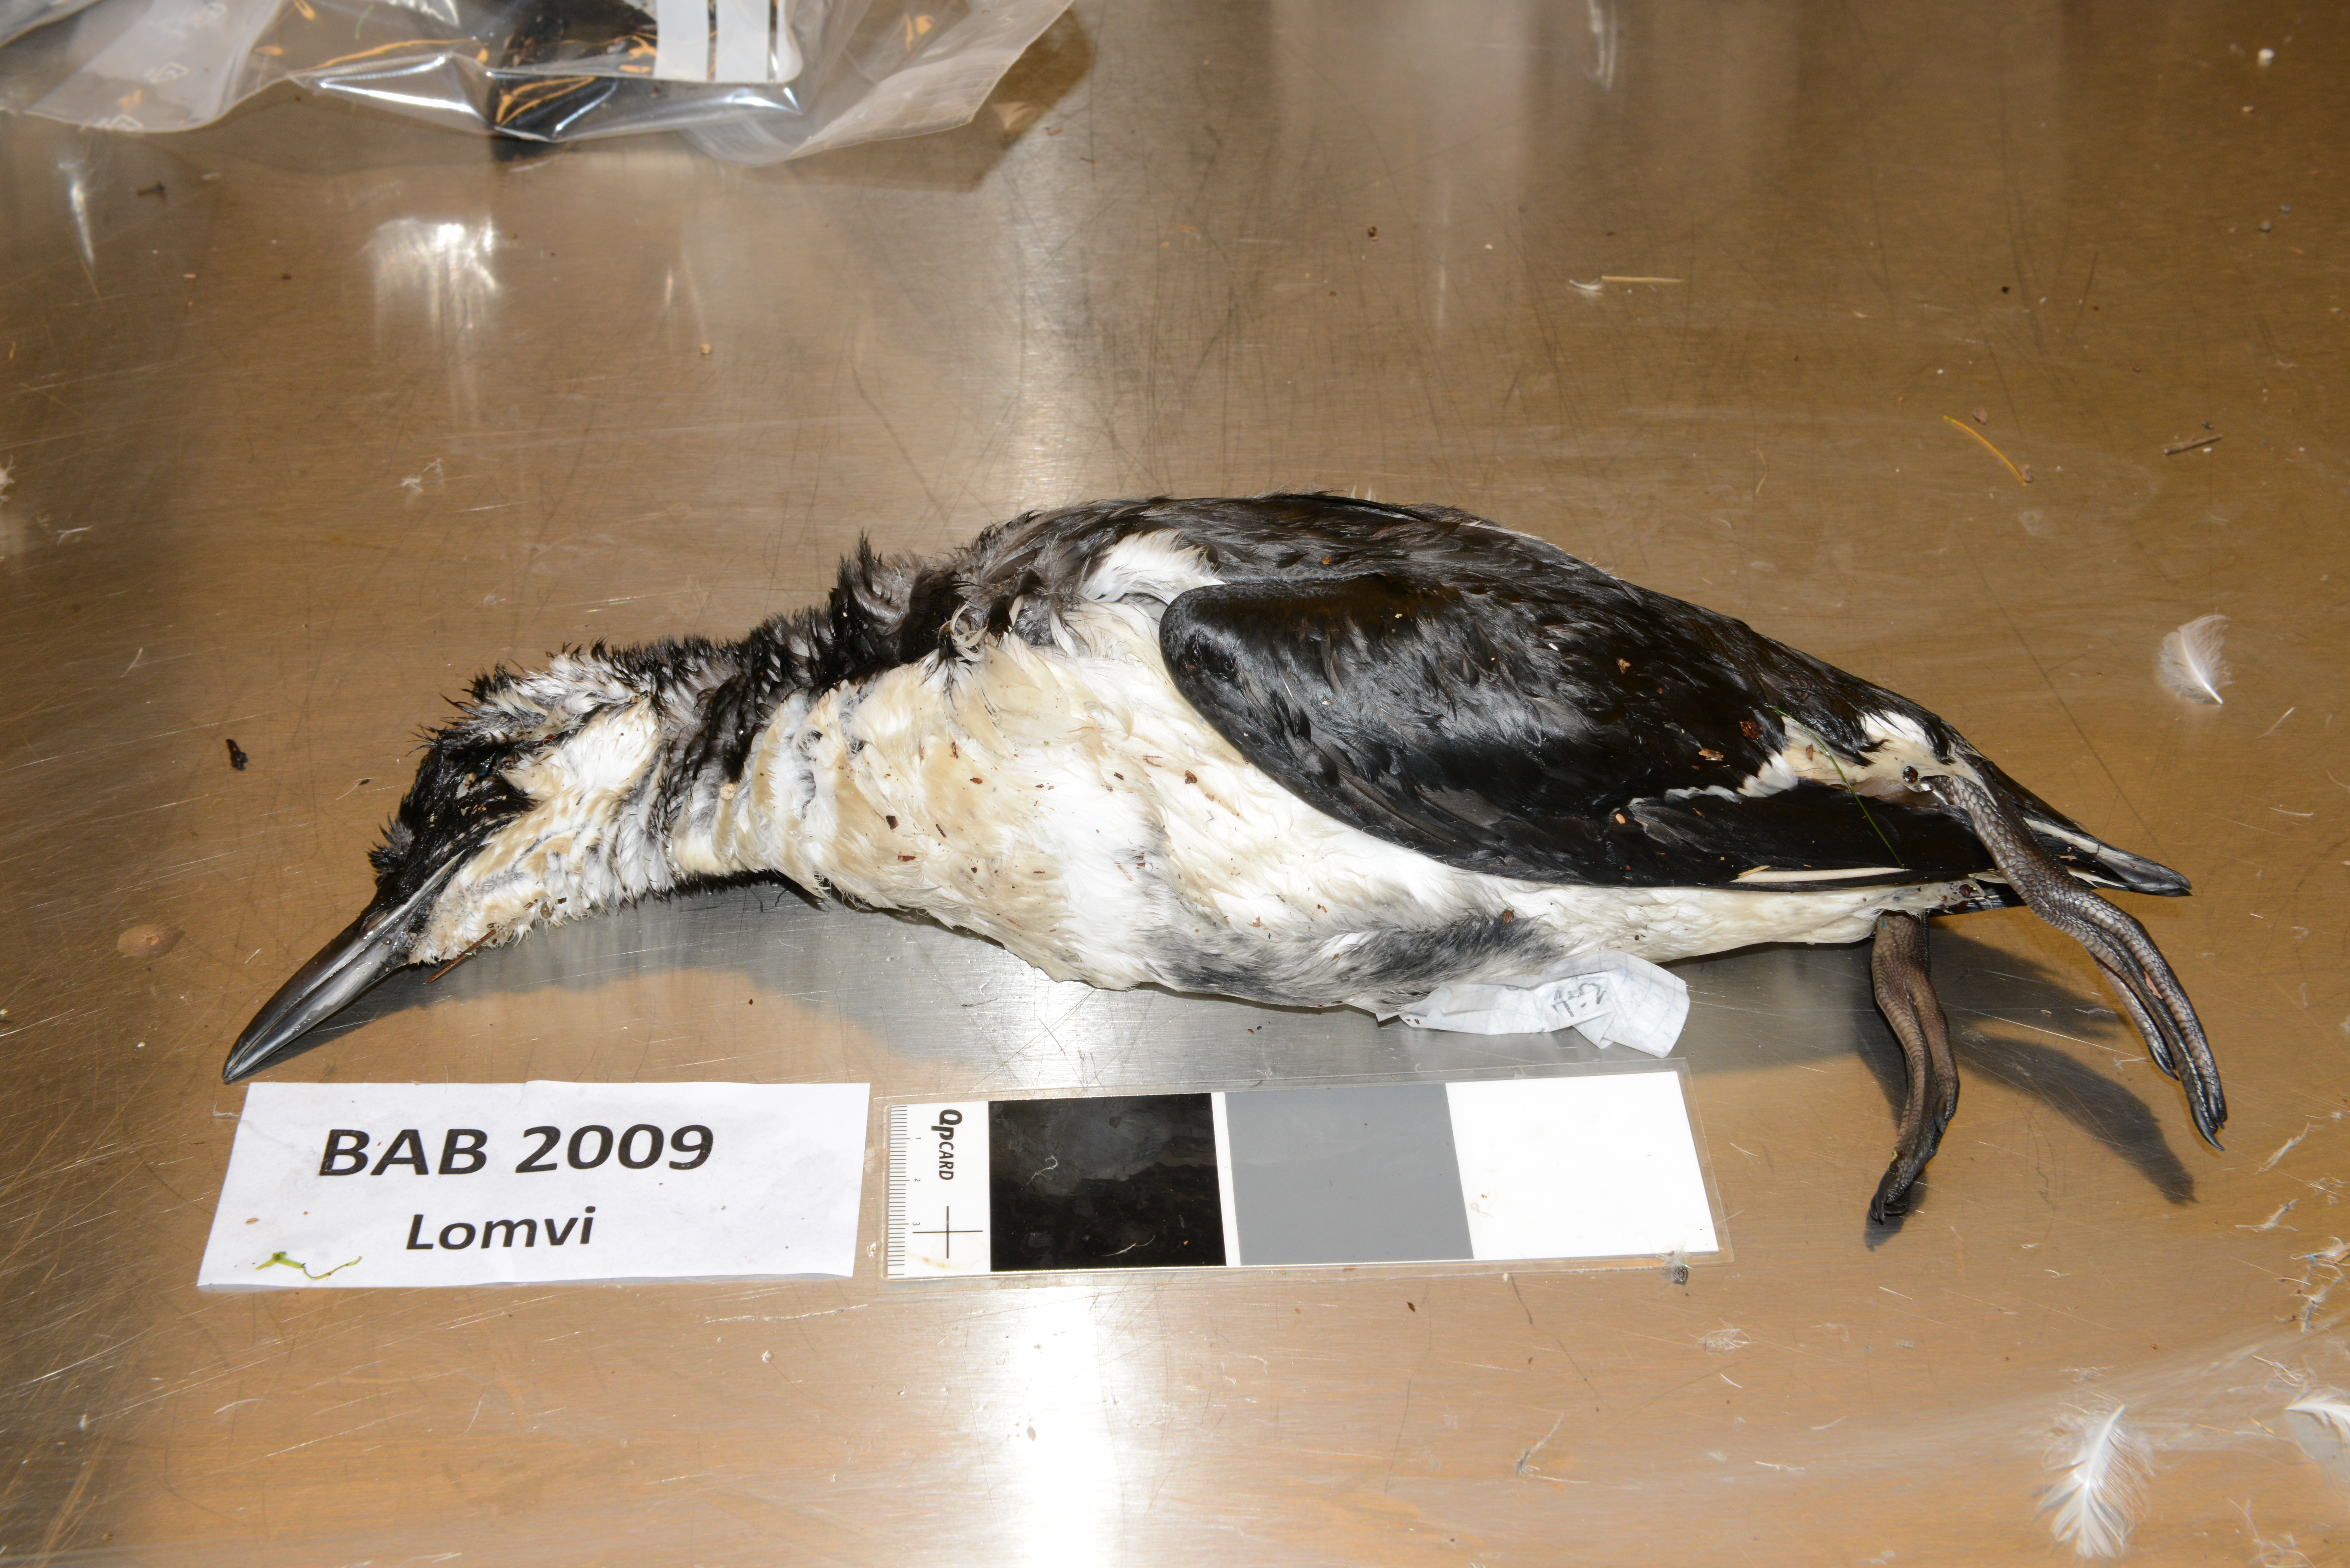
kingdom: Animalia
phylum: Chordata
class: Aves
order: Charadriiformes
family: Alcidae
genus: Uria
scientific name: Uria aalge
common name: Common murre
